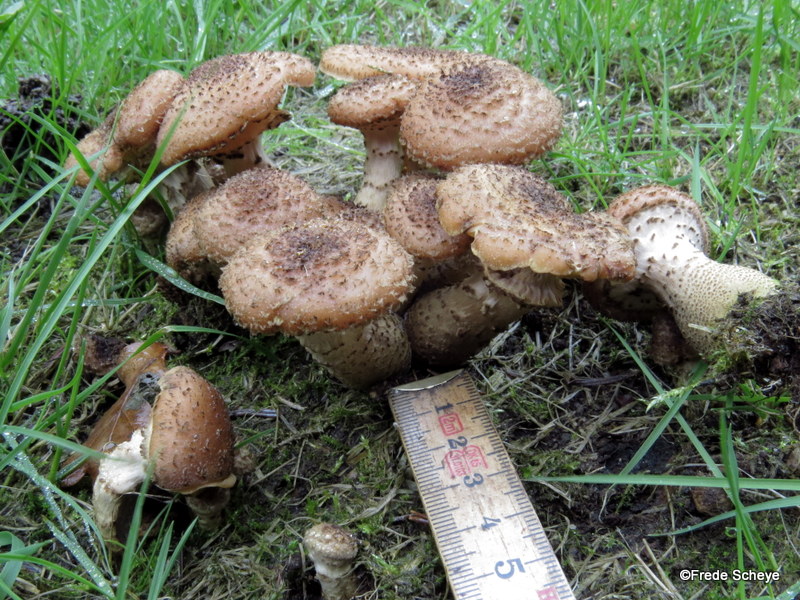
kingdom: Fungi
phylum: Basidiomycota
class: Agaricomycetes
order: Agaricales
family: Physalacriaceae
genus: Armillaria
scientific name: Armillaria ostoyae
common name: mørk honningsvamp
